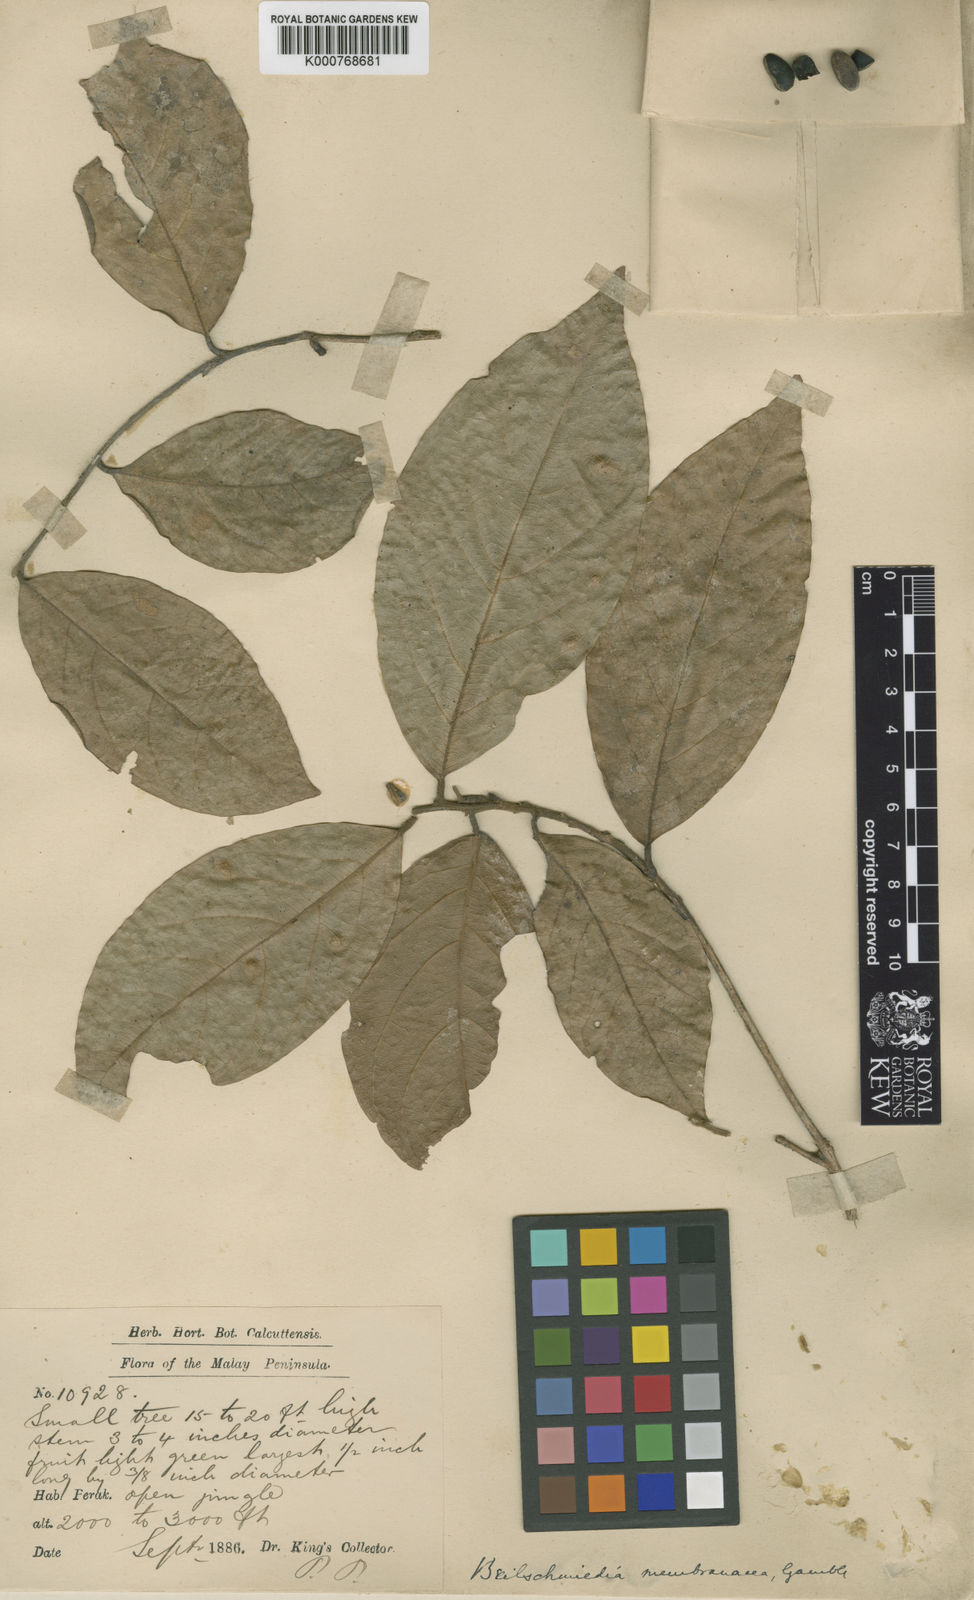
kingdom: Plantae
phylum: Tracheophyta
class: Magnoliopsida
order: Laurales
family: Lauraceae
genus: Beilschmiedia
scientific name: Beilschmiedia membranacea
